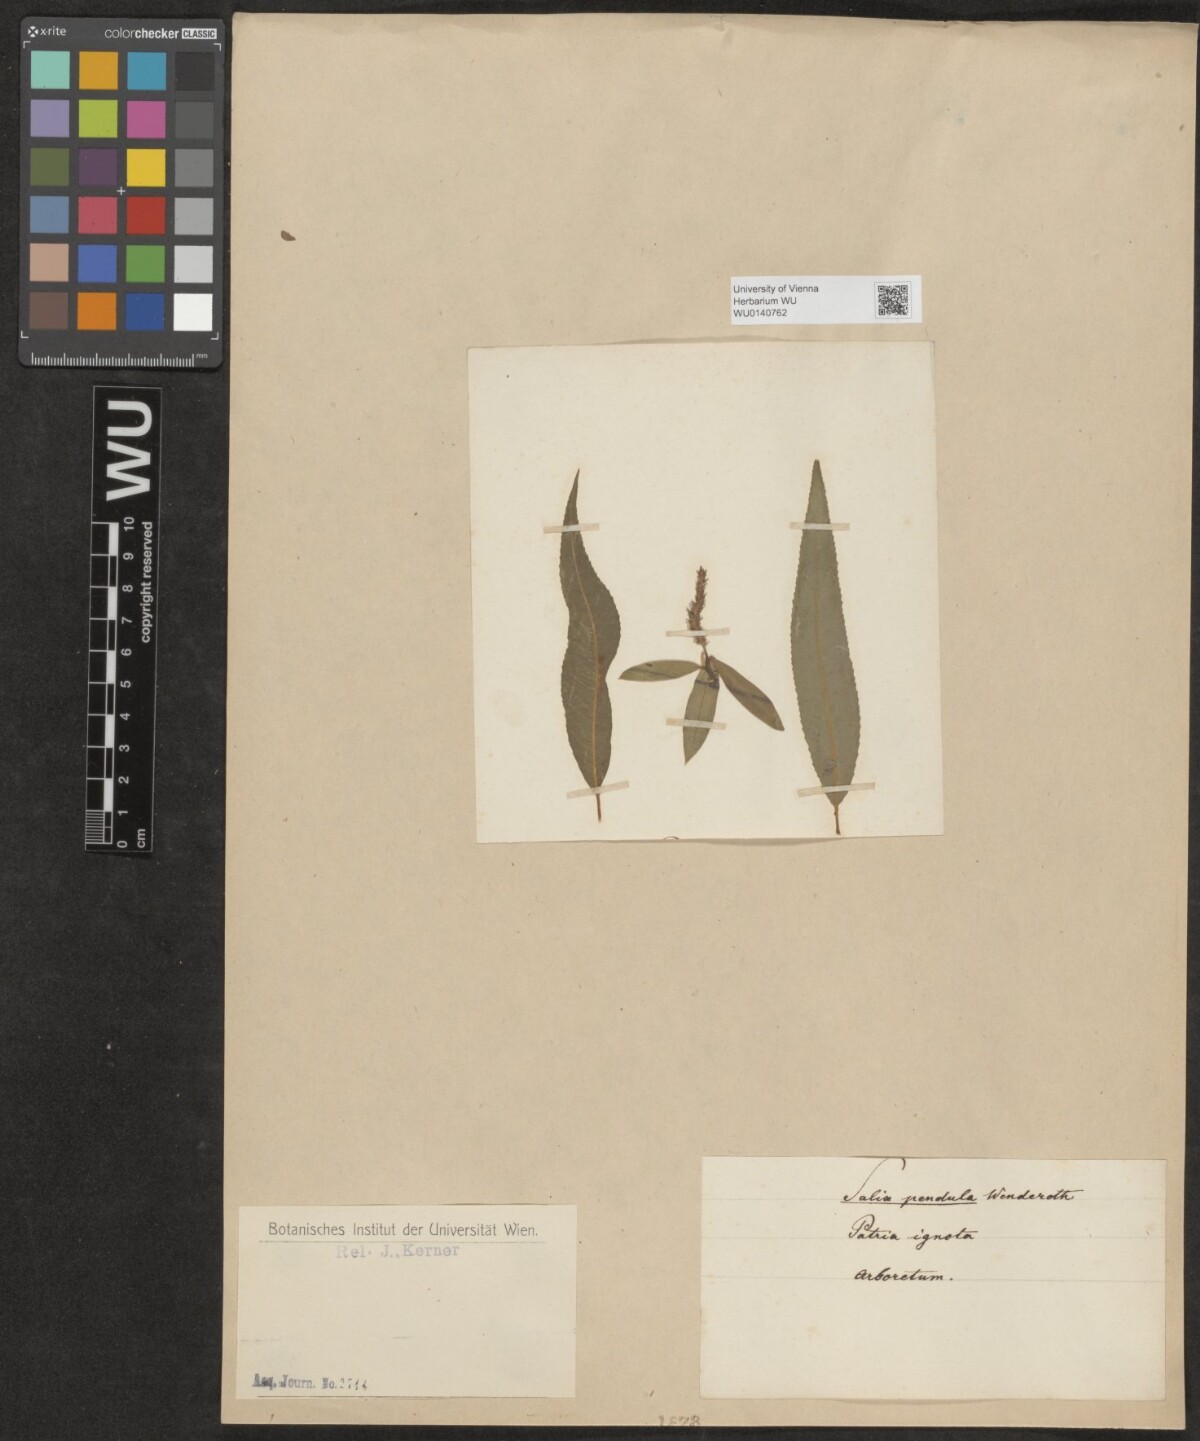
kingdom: Plantae
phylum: Tracheophyta
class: Magnoliopsida
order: Malpighiales
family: Salicaceae
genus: Salix
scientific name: Salix
